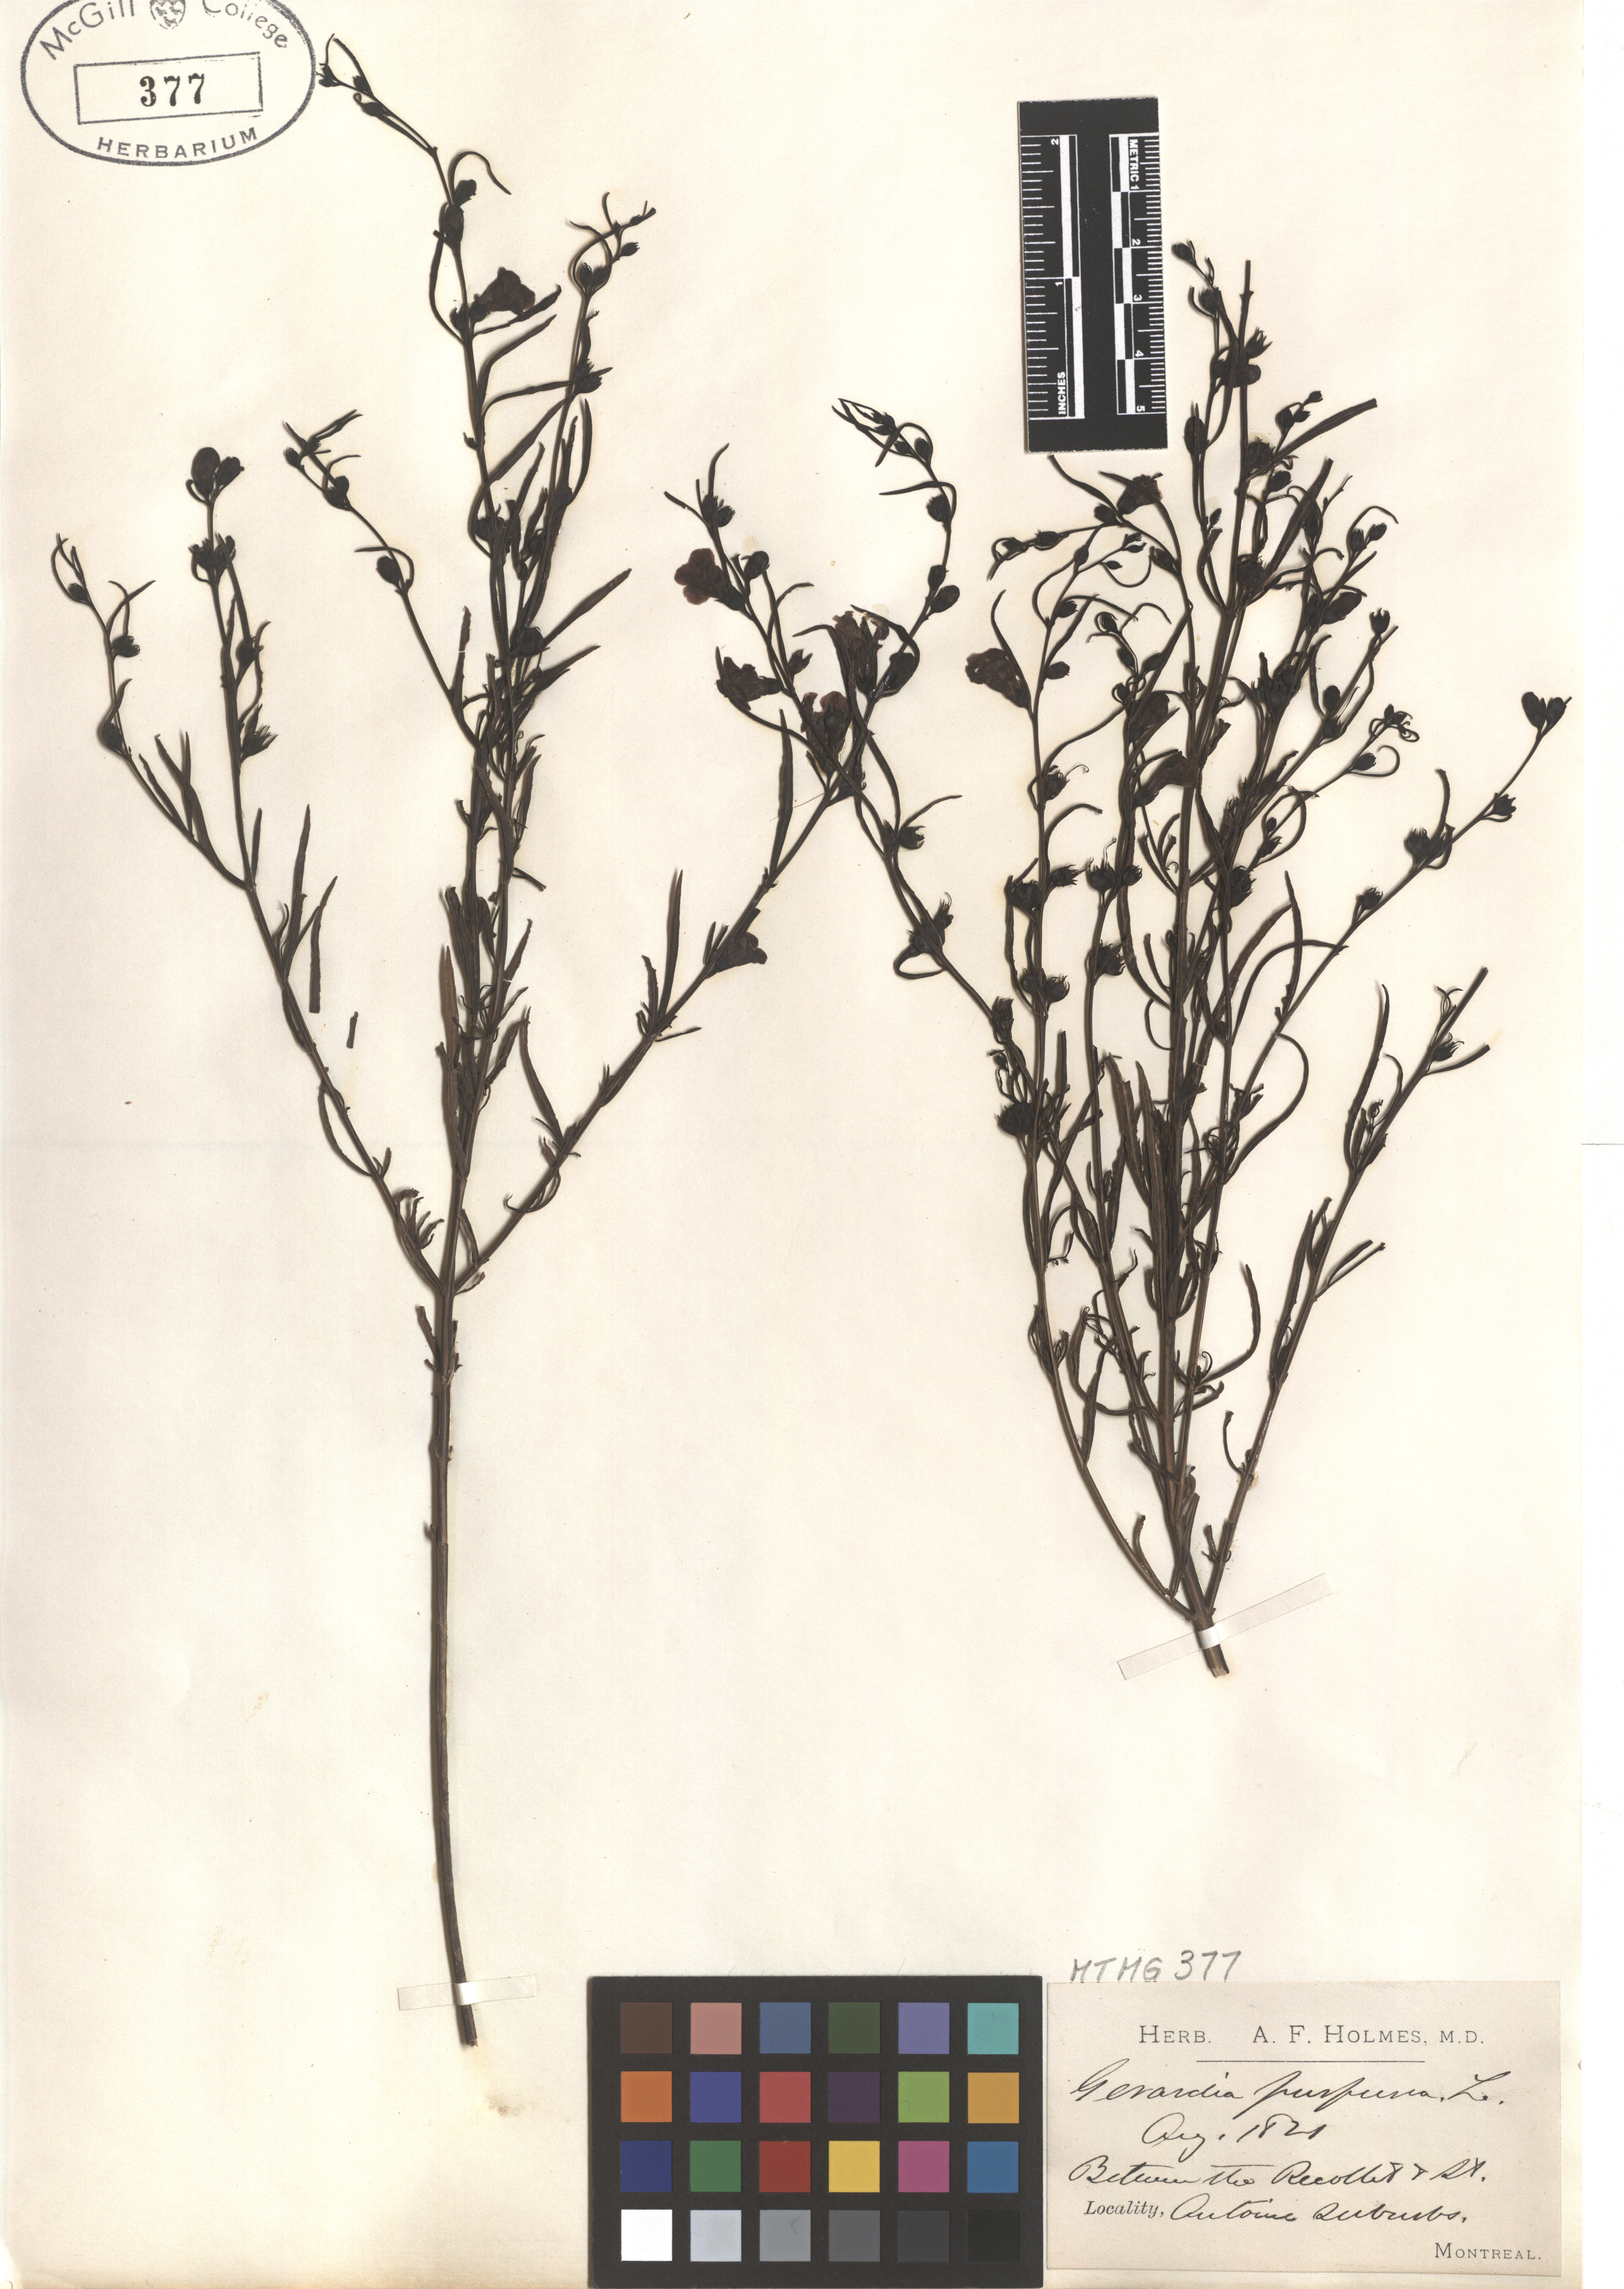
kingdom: Plantae
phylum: Tracheophyta
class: Magnoliopsida
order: Lamiales
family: Orobanchaceae
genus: Agalinis
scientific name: Agalinis purpurea
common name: Purple false foxglove
